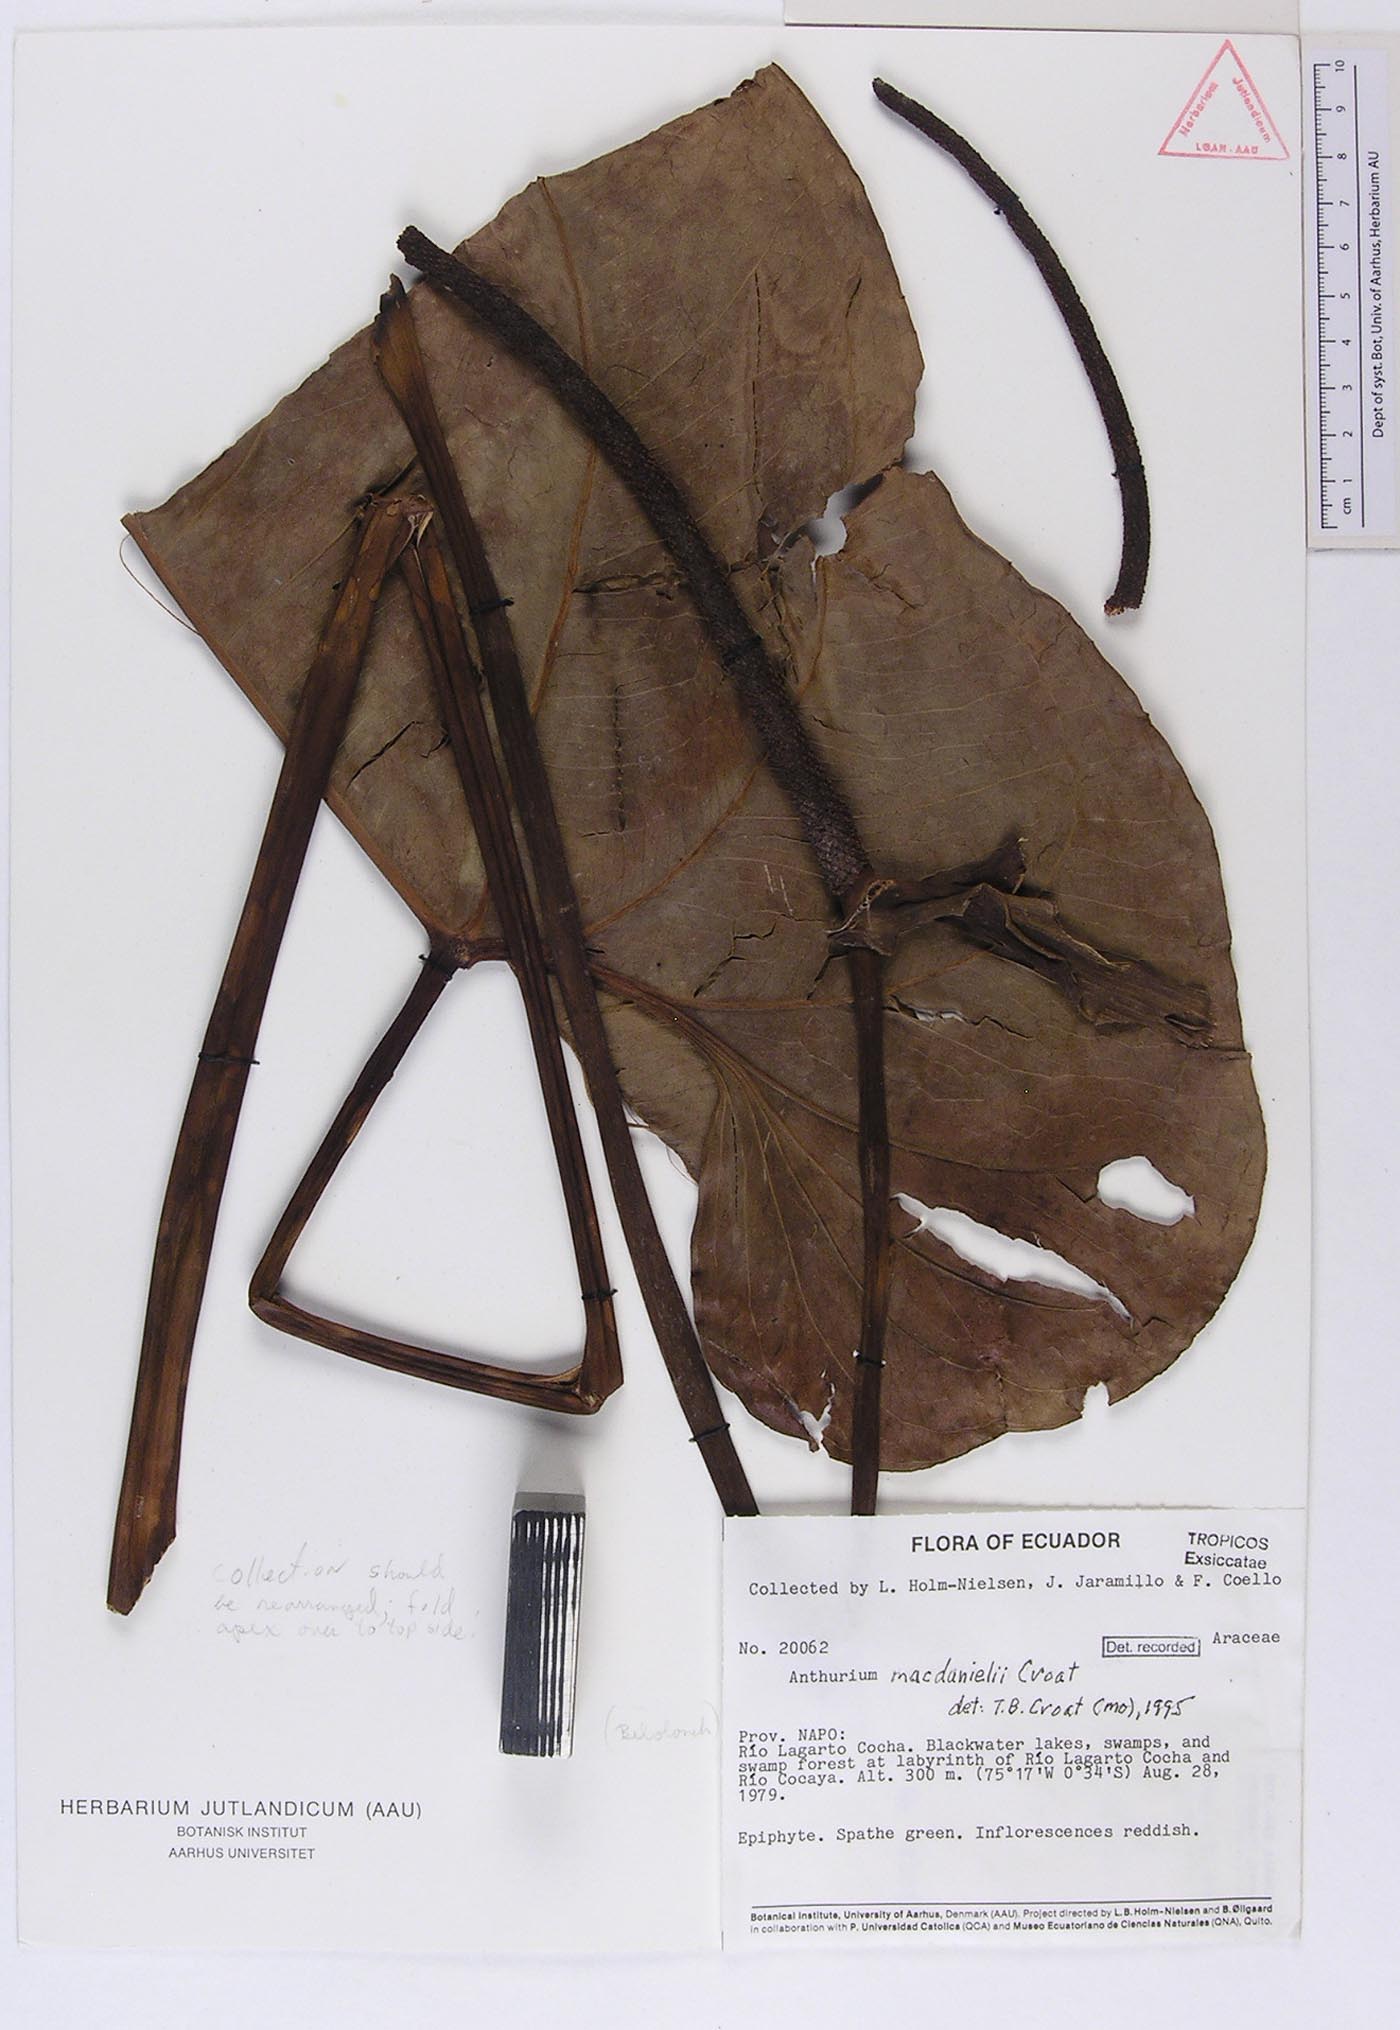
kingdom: Plantae
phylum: Tracheophyta
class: Liliopsida
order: Alismatales
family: Araceae
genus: Anthurium
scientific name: Anthurium macdanielii
